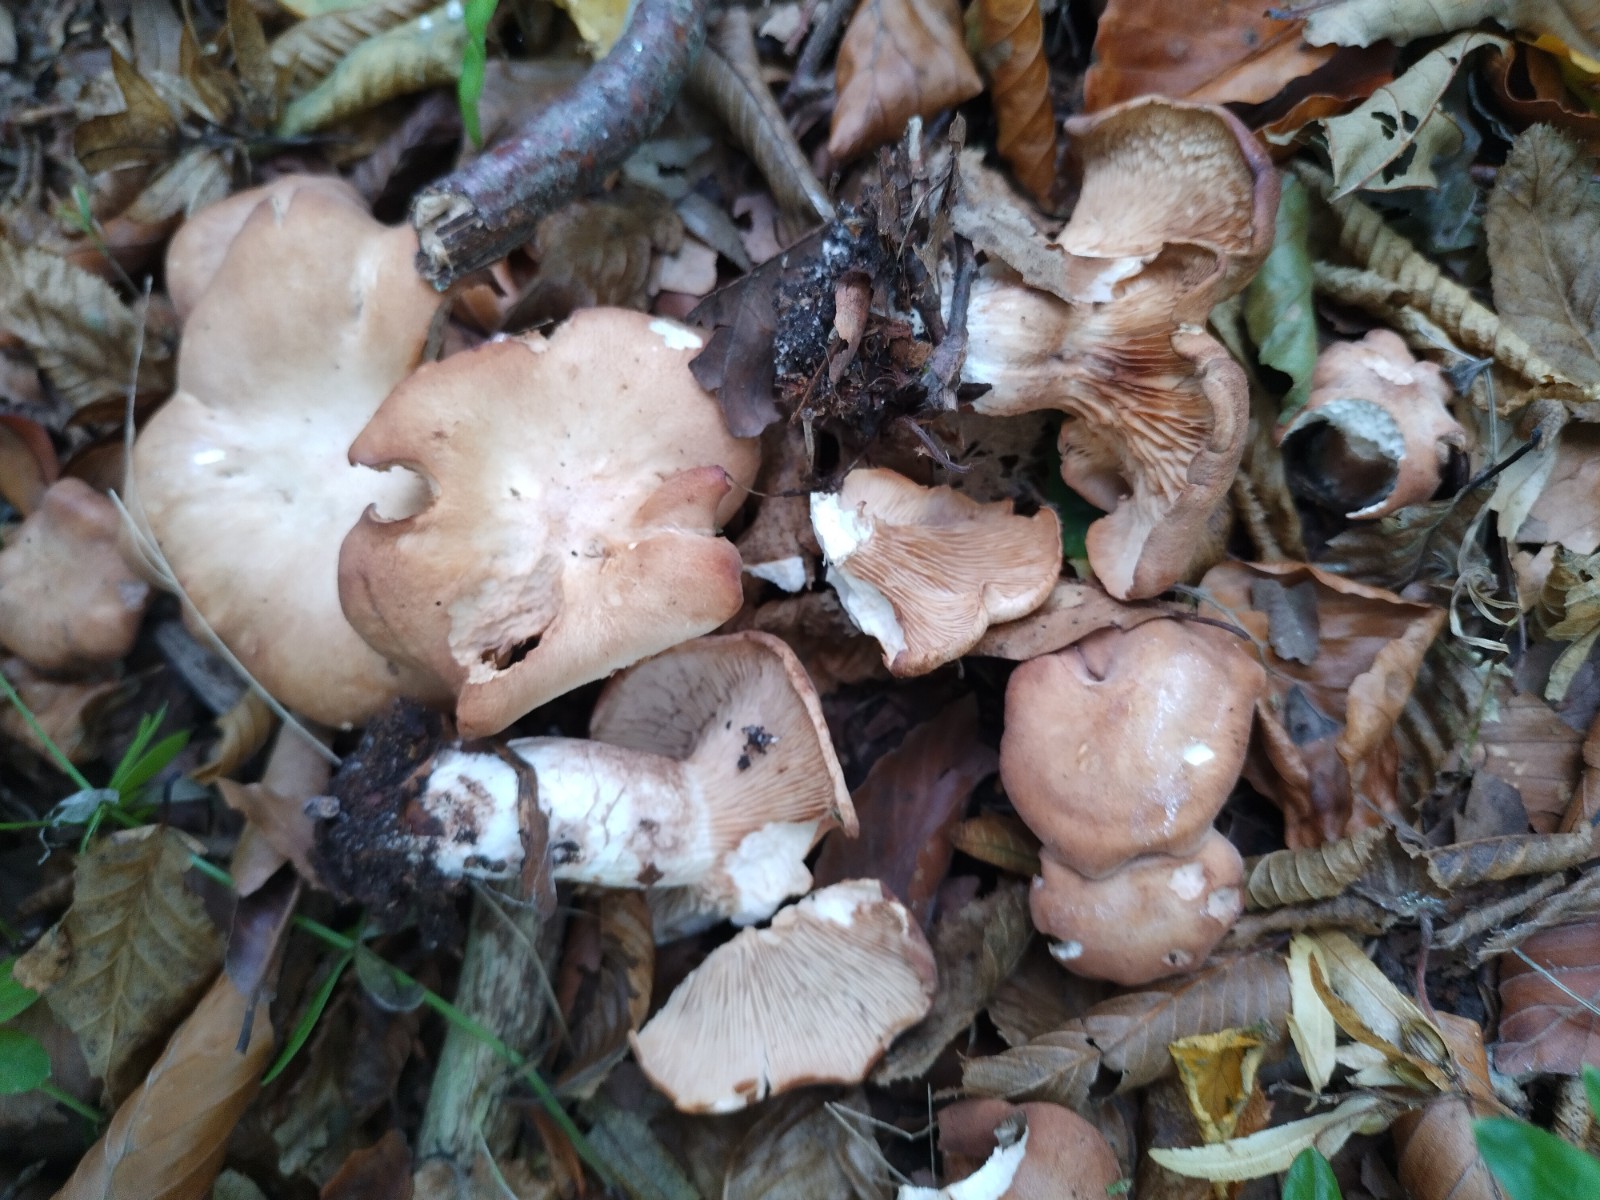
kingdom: Fungi
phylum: Basidiomycota
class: Agaricomycetes
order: Agaricales
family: Entolomataceae
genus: Clitopilus
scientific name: Clitopilus geminus
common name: kødfarvet troldhat
